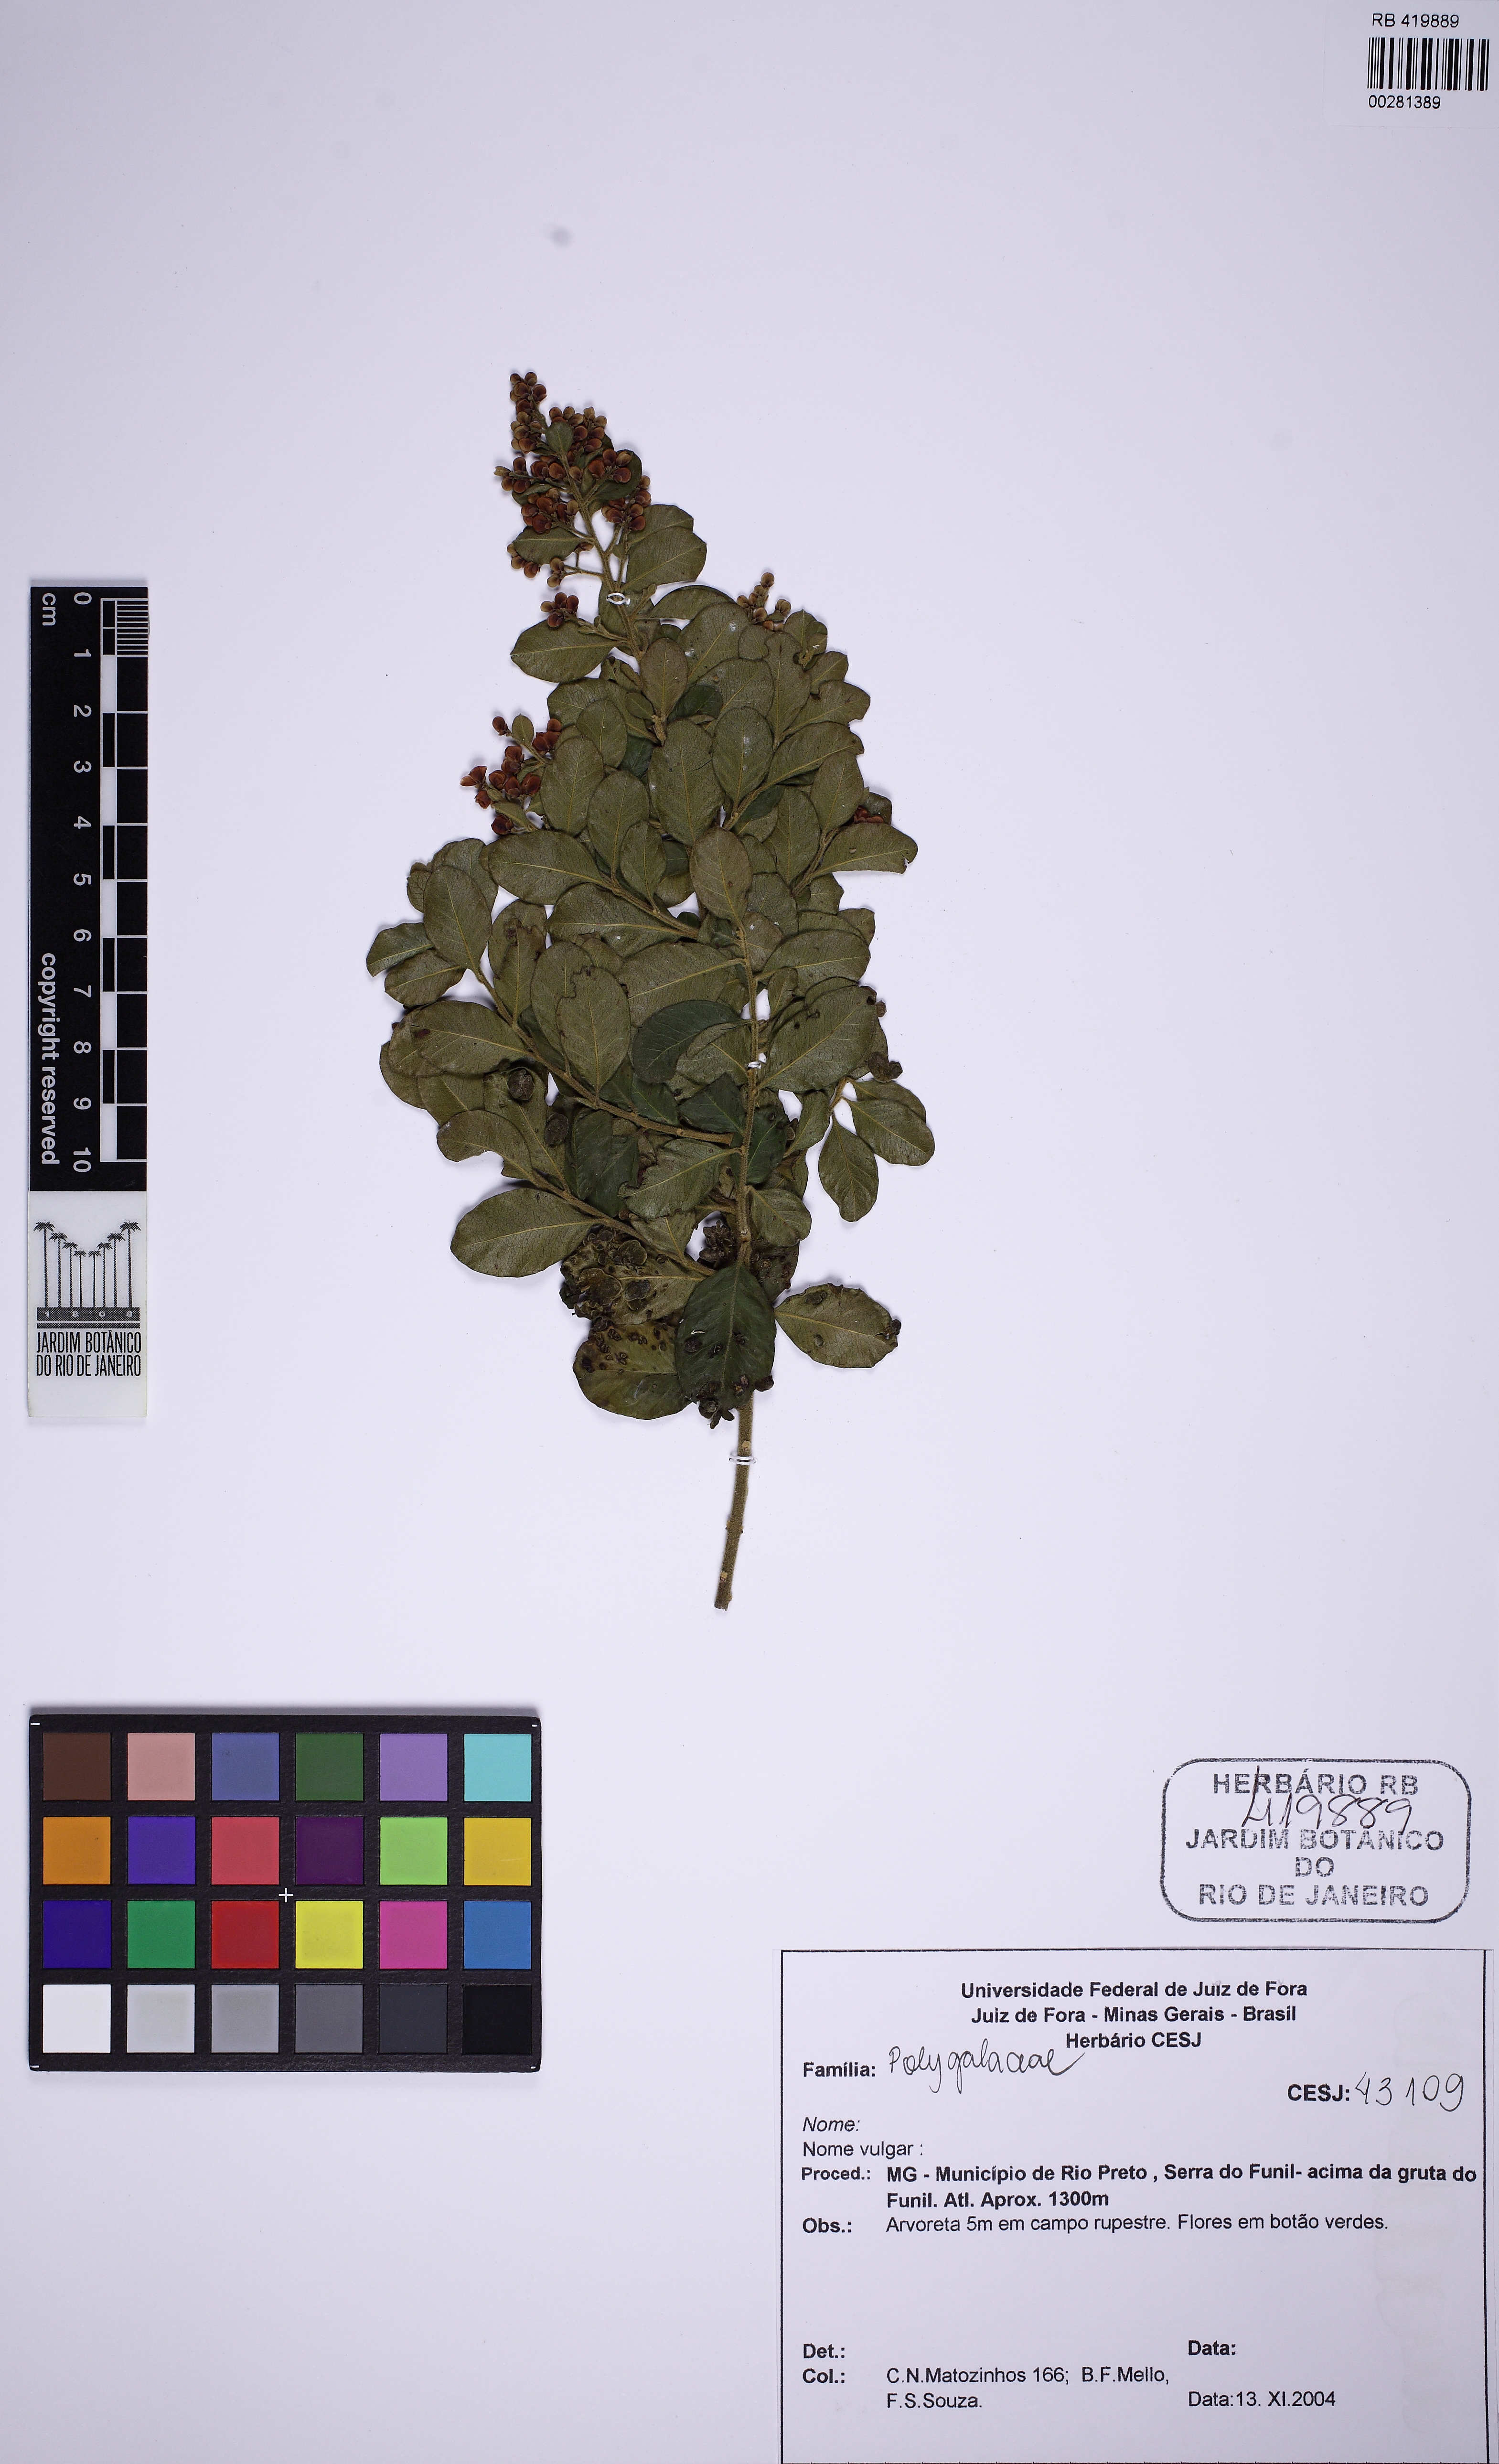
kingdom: Plantae
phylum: Tracheophyta
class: Magnoliopsida
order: Fabales
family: Polygalaceae
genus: Bredemeyera
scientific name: Bredemeyera hebeclada
